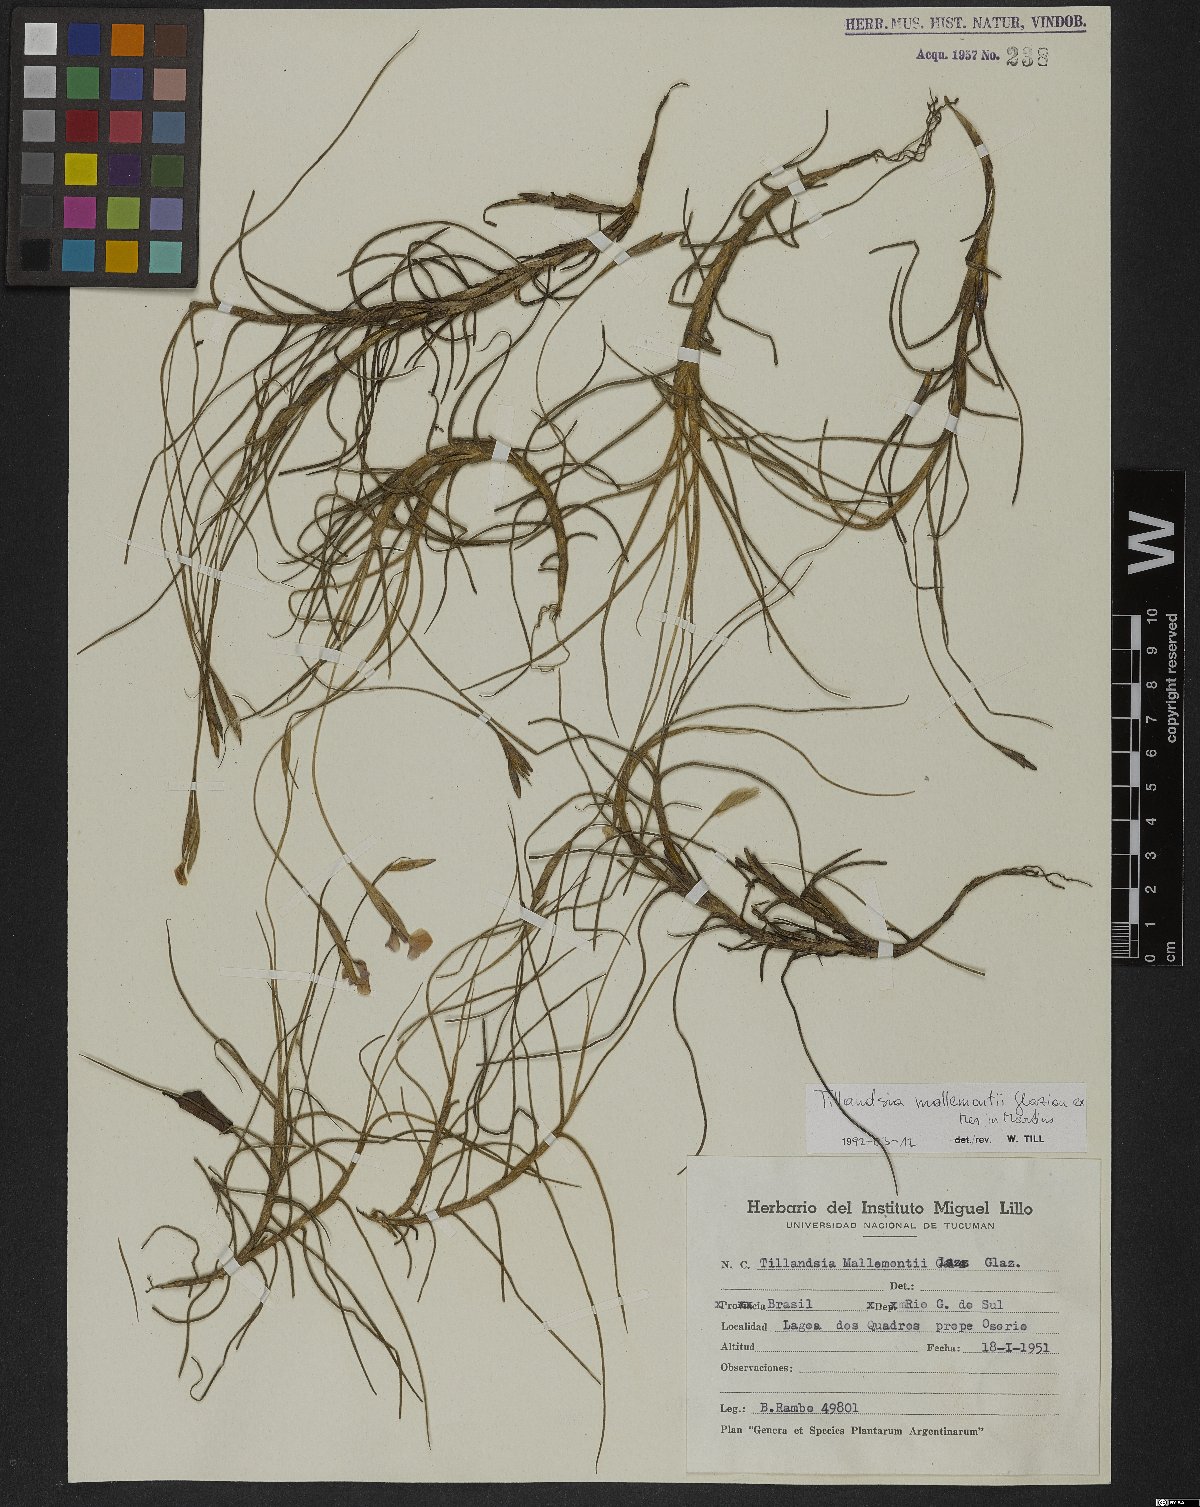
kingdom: Plantae
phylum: Tracheophyta
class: Liliopsida
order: Poales
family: Bromeliaceae
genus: Tillandsia
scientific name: Tillandsia mallemontii
